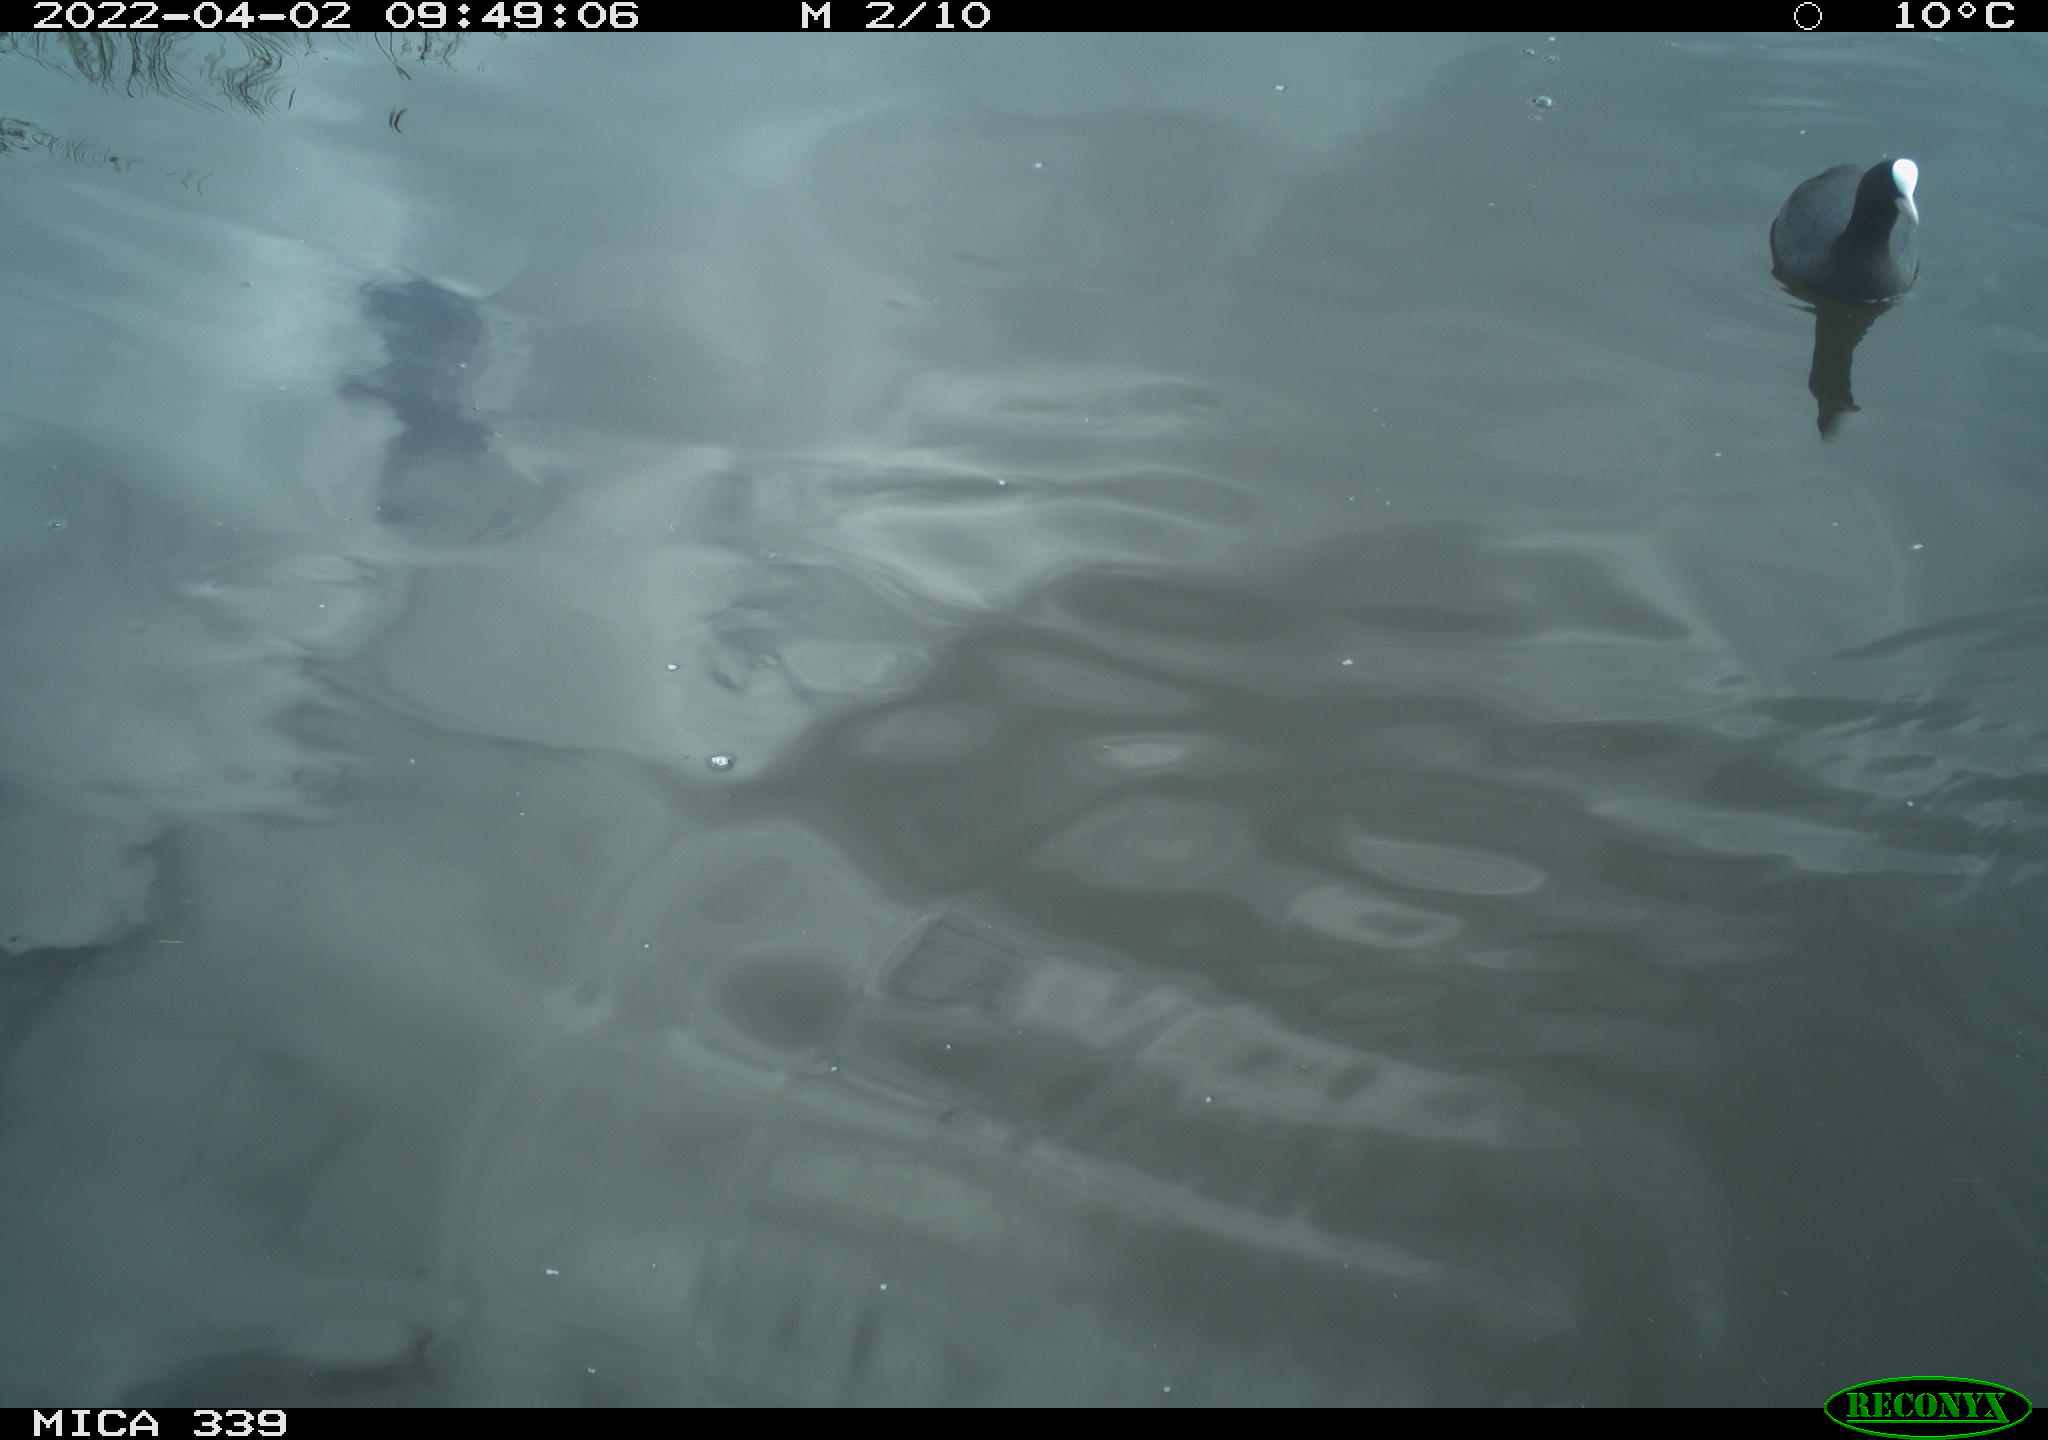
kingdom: Animalia
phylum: Chordata
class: Aves
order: Gruiformes
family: Rallidae
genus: Fulica
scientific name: Fulica atra
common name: Eurasian coot
